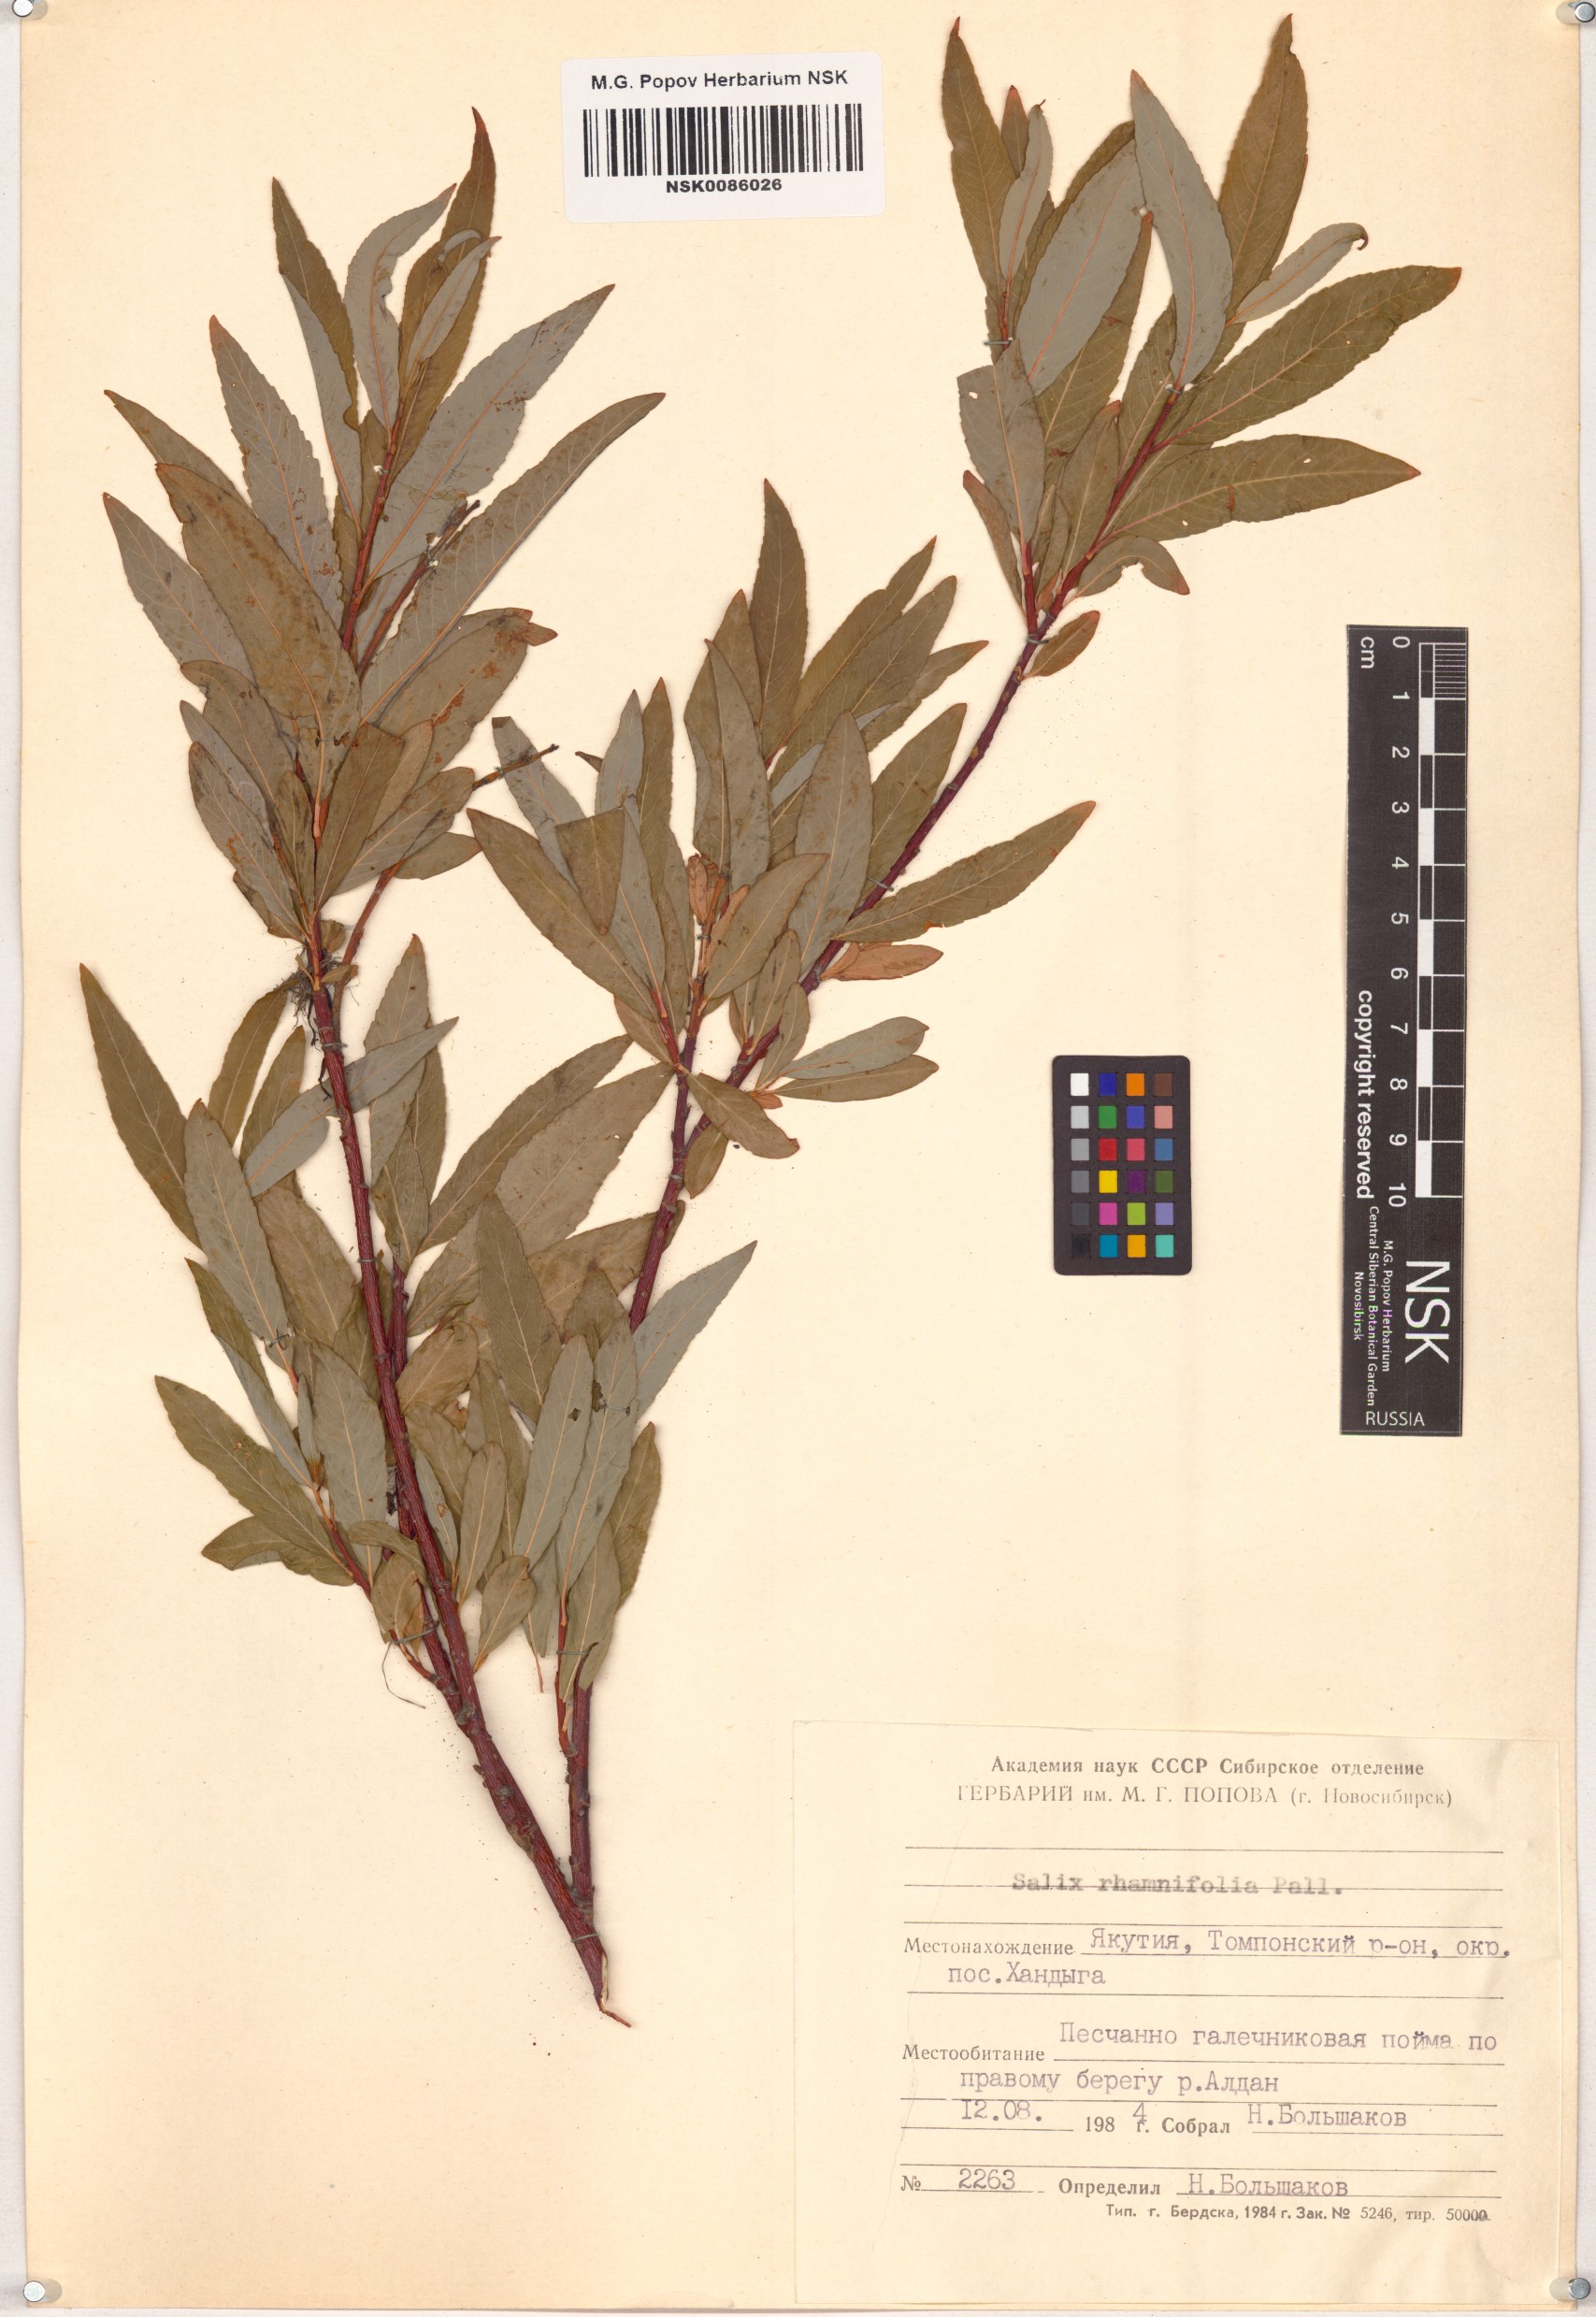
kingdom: Plantae
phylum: Tracheophyta
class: Magnoliopsida
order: Malpighiales
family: Salicaceae
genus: Salix
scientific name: Salix rhamnifolia
